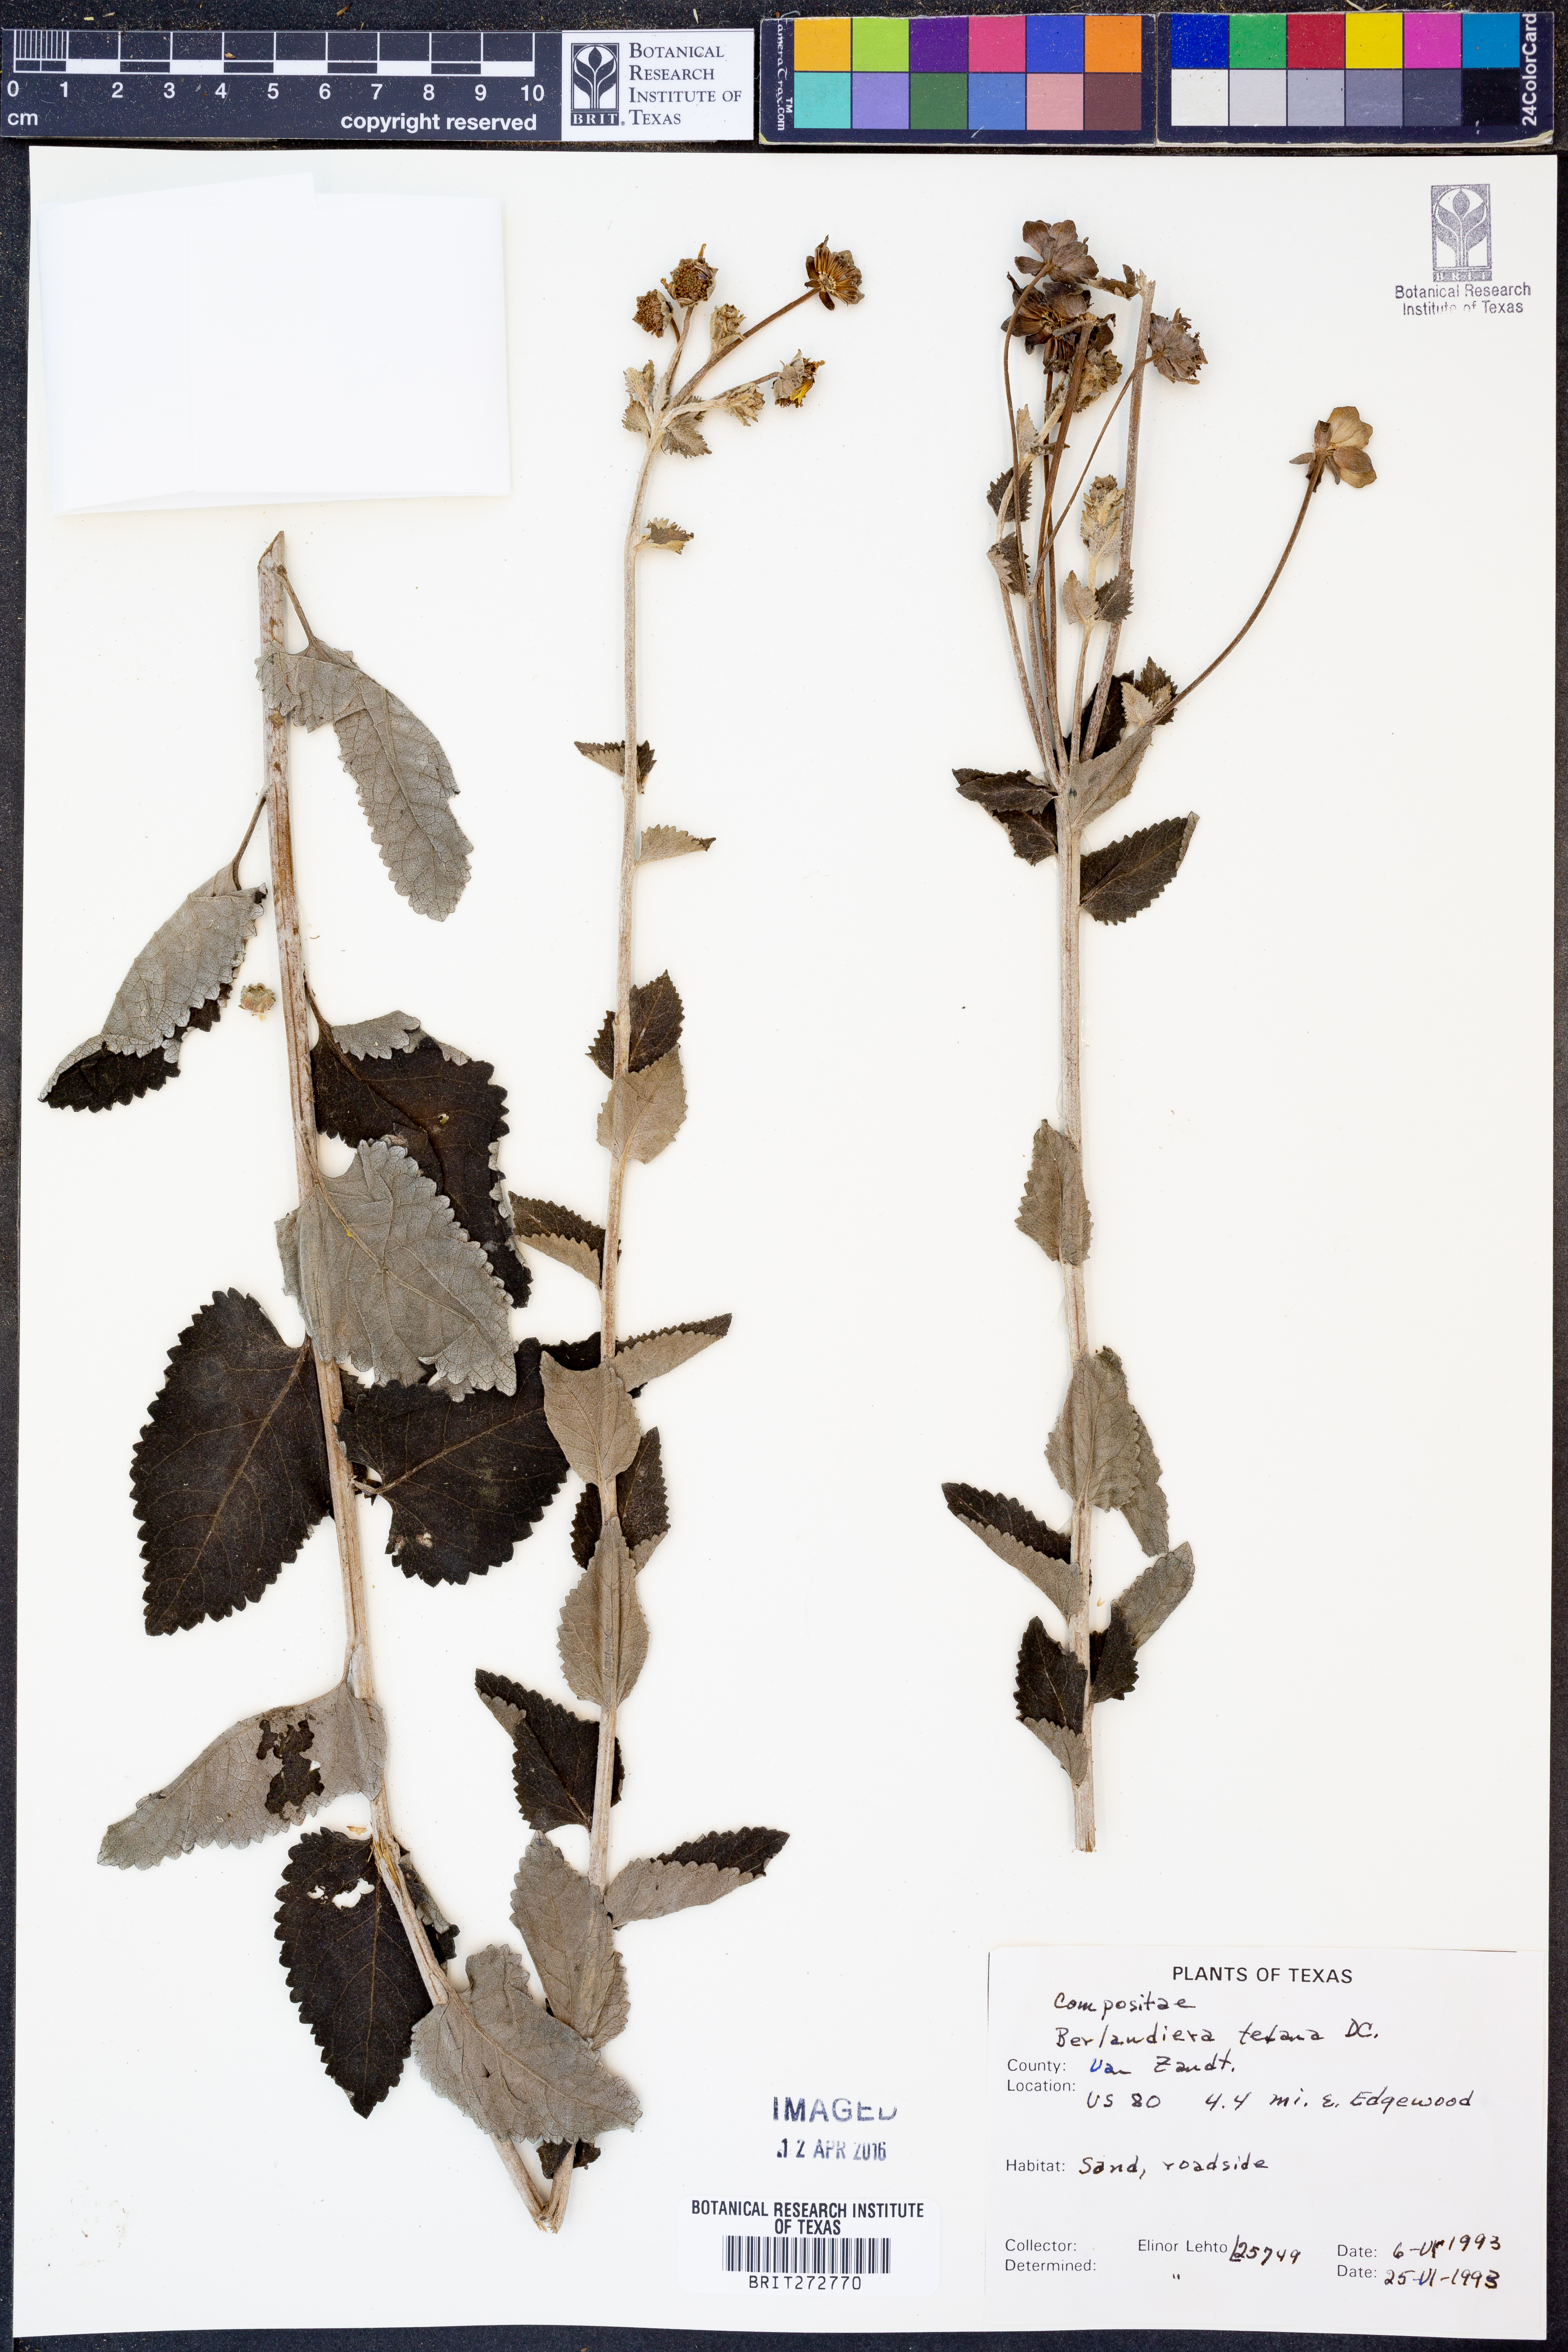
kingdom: Plantae
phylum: Tracheophyta
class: Magnoliopsida
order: Asterales
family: Asteraceae
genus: Berlandiera
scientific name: Berlandiera texana
